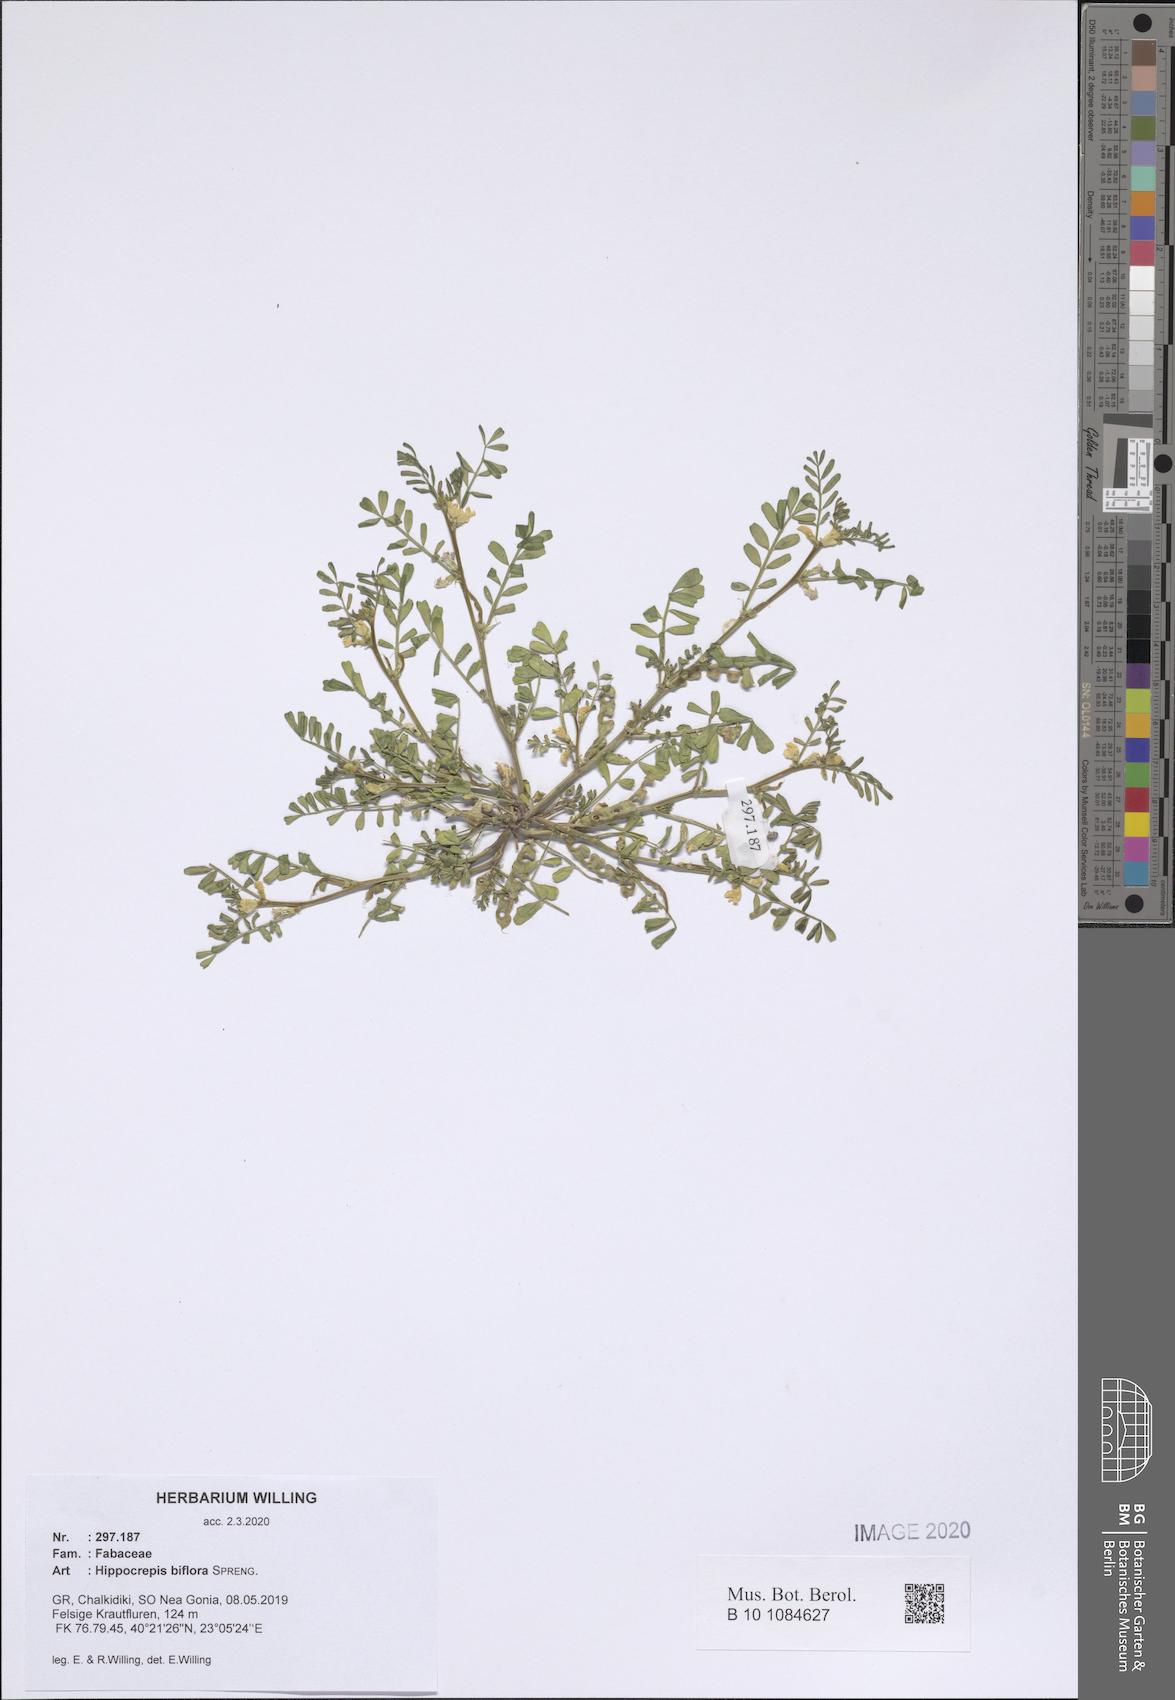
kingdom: Plantae
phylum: Tracheophyta
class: Magnoliopsida
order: Fabales
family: Fabaceae
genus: Hippocrepis
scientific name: Hippocrepis biflora
